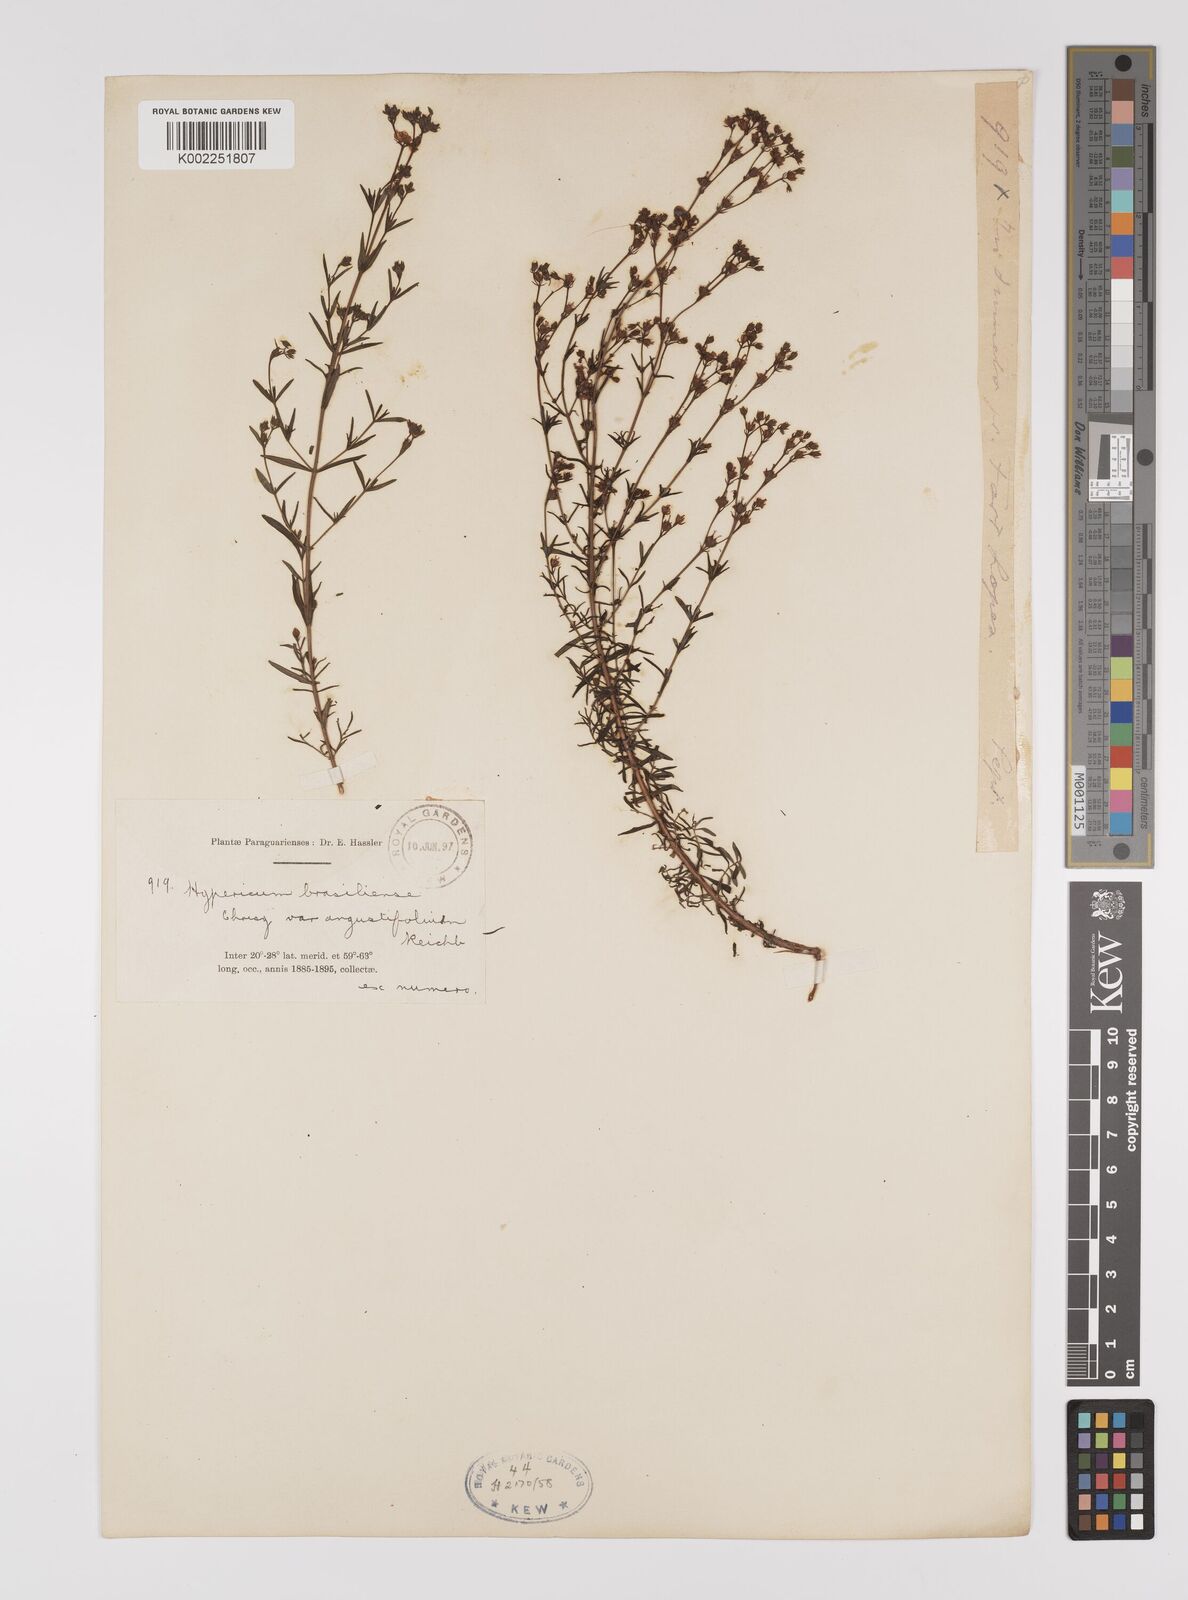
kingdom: Plantae
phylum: Tracheophyta
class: Magnoliopsida
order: Malpighiales
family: Hypericaceae
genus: Hypericum
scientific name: Hypericum lorentzianum
